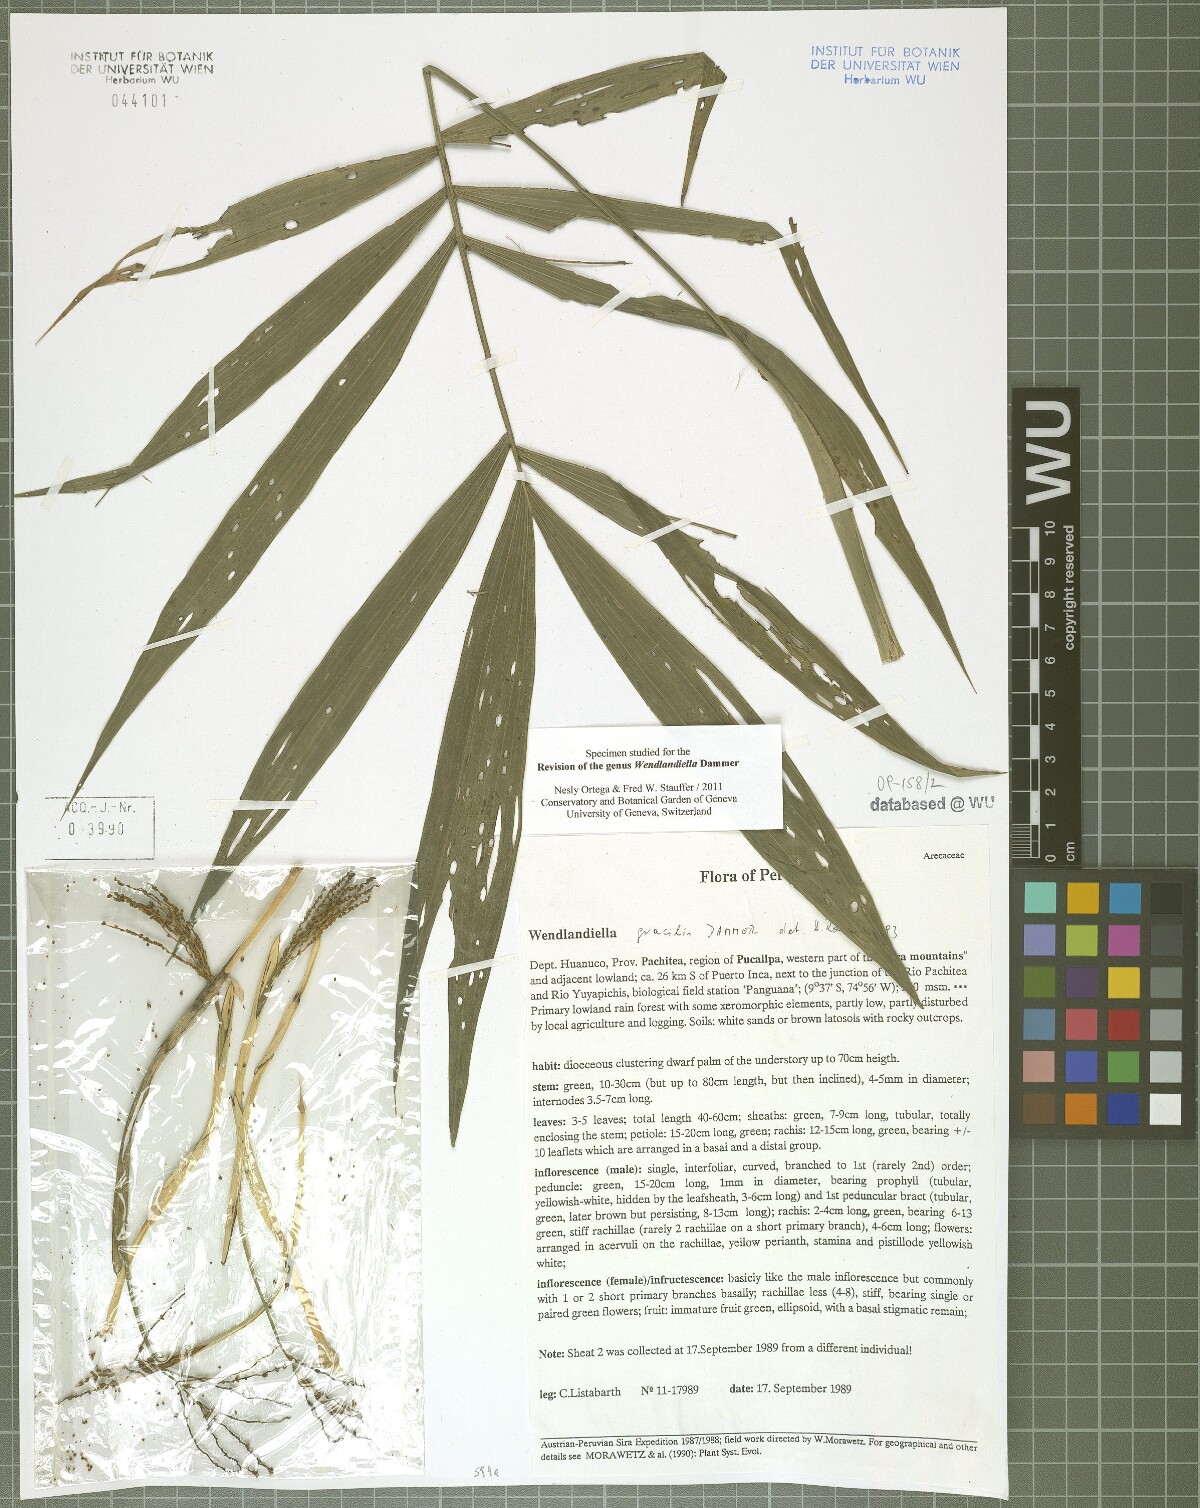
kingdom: Plantae
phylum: Tracheophyta
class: Liliopsida
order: Arecales
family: Arecaceae
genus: Wendlandiella
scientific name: Wendlandiella gracilis
